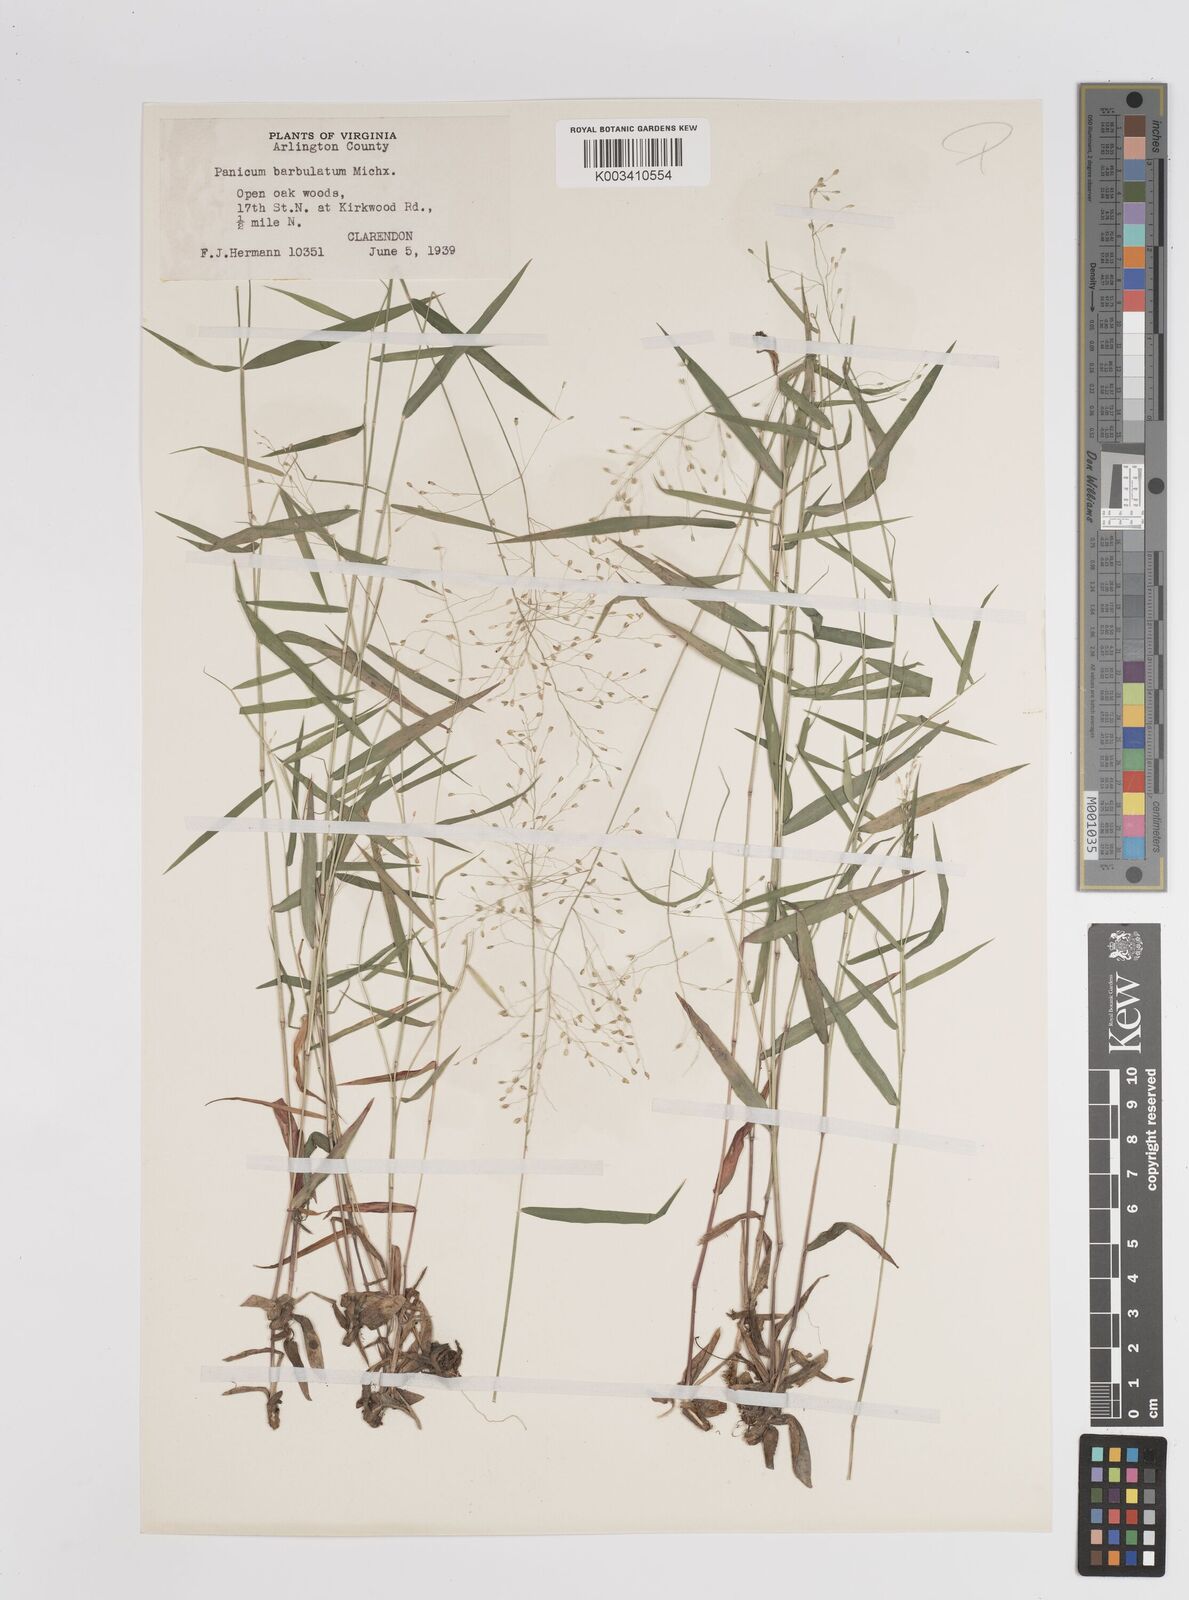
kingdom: Plantae
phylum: Tracheophyta
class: Liliopsida
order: Poales
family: Poaceae
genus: Dichanthelium
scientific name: Dichanthelium dichotomum
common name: Cypress panicgrass
